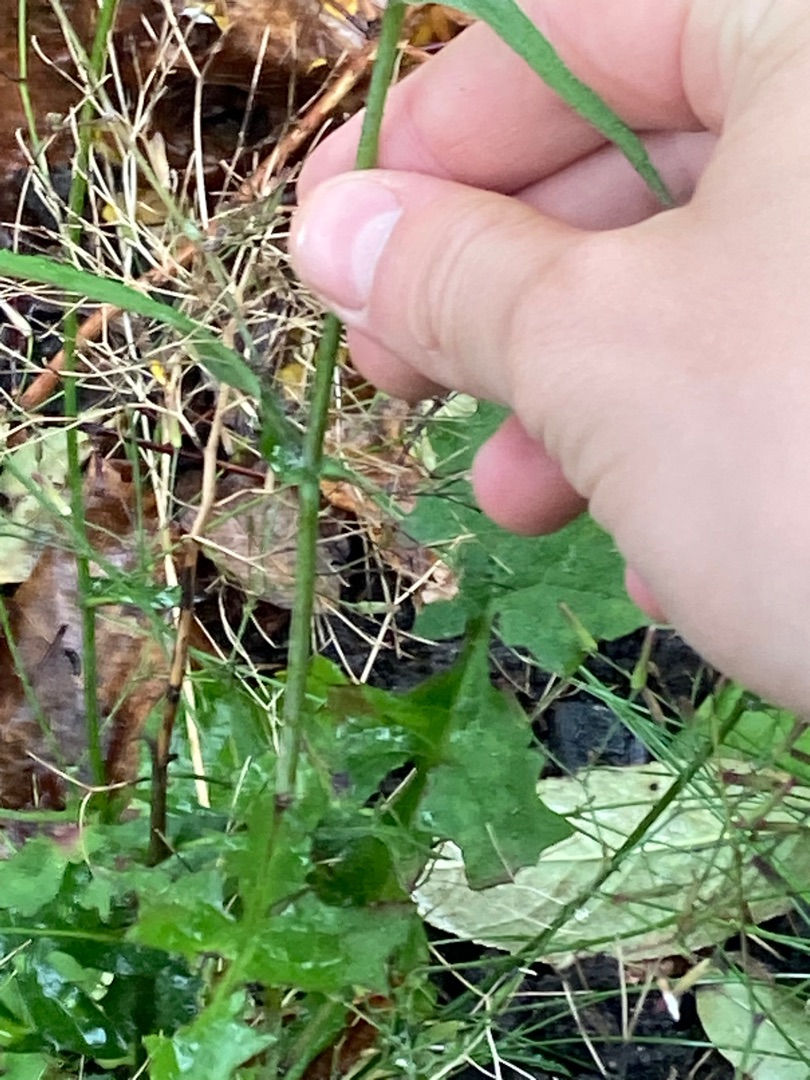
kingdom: Plantae
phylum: Tracheophyta
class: Magnoliopsida
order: Asterales
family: Asteraceae
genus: Mycelis
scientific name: Mycelis muralis
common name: Skov-salat
